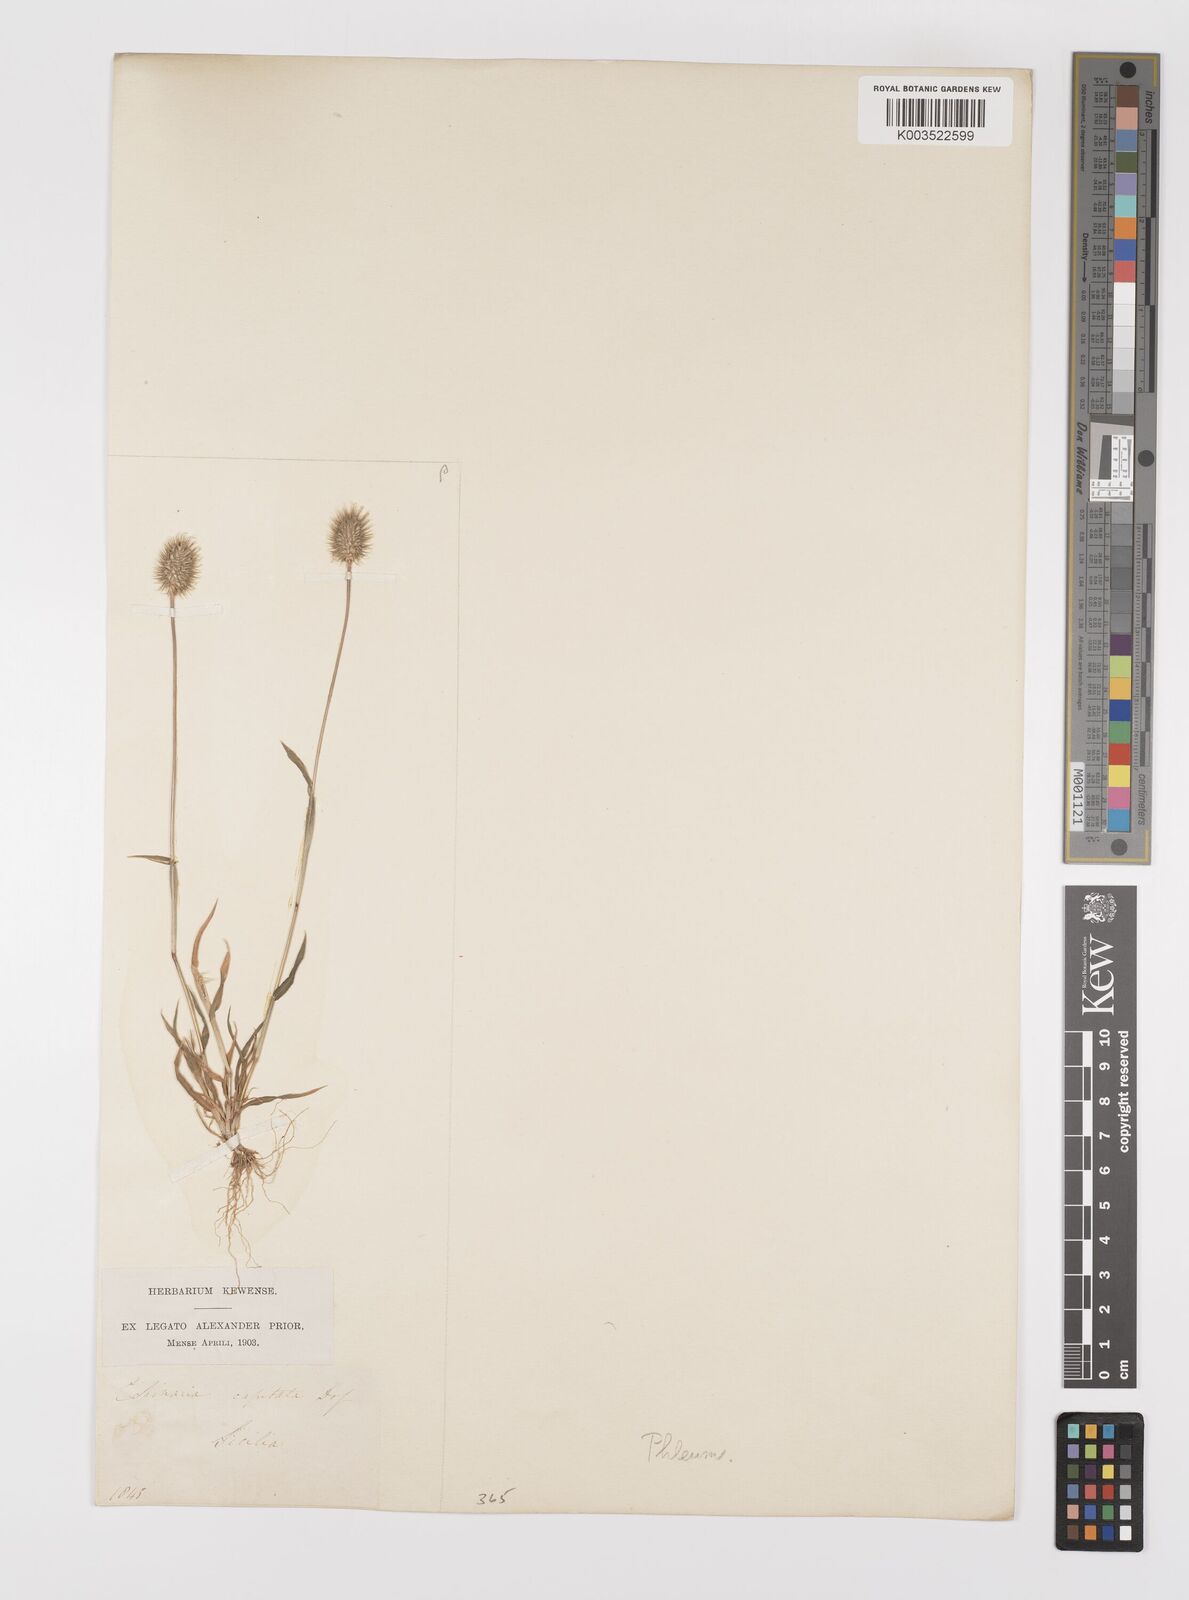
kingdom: Plantae
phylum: Tracheophyta
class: Liliopsida
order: Poales
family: Poaceae
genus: Phleum
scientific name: Phleum echinatum
